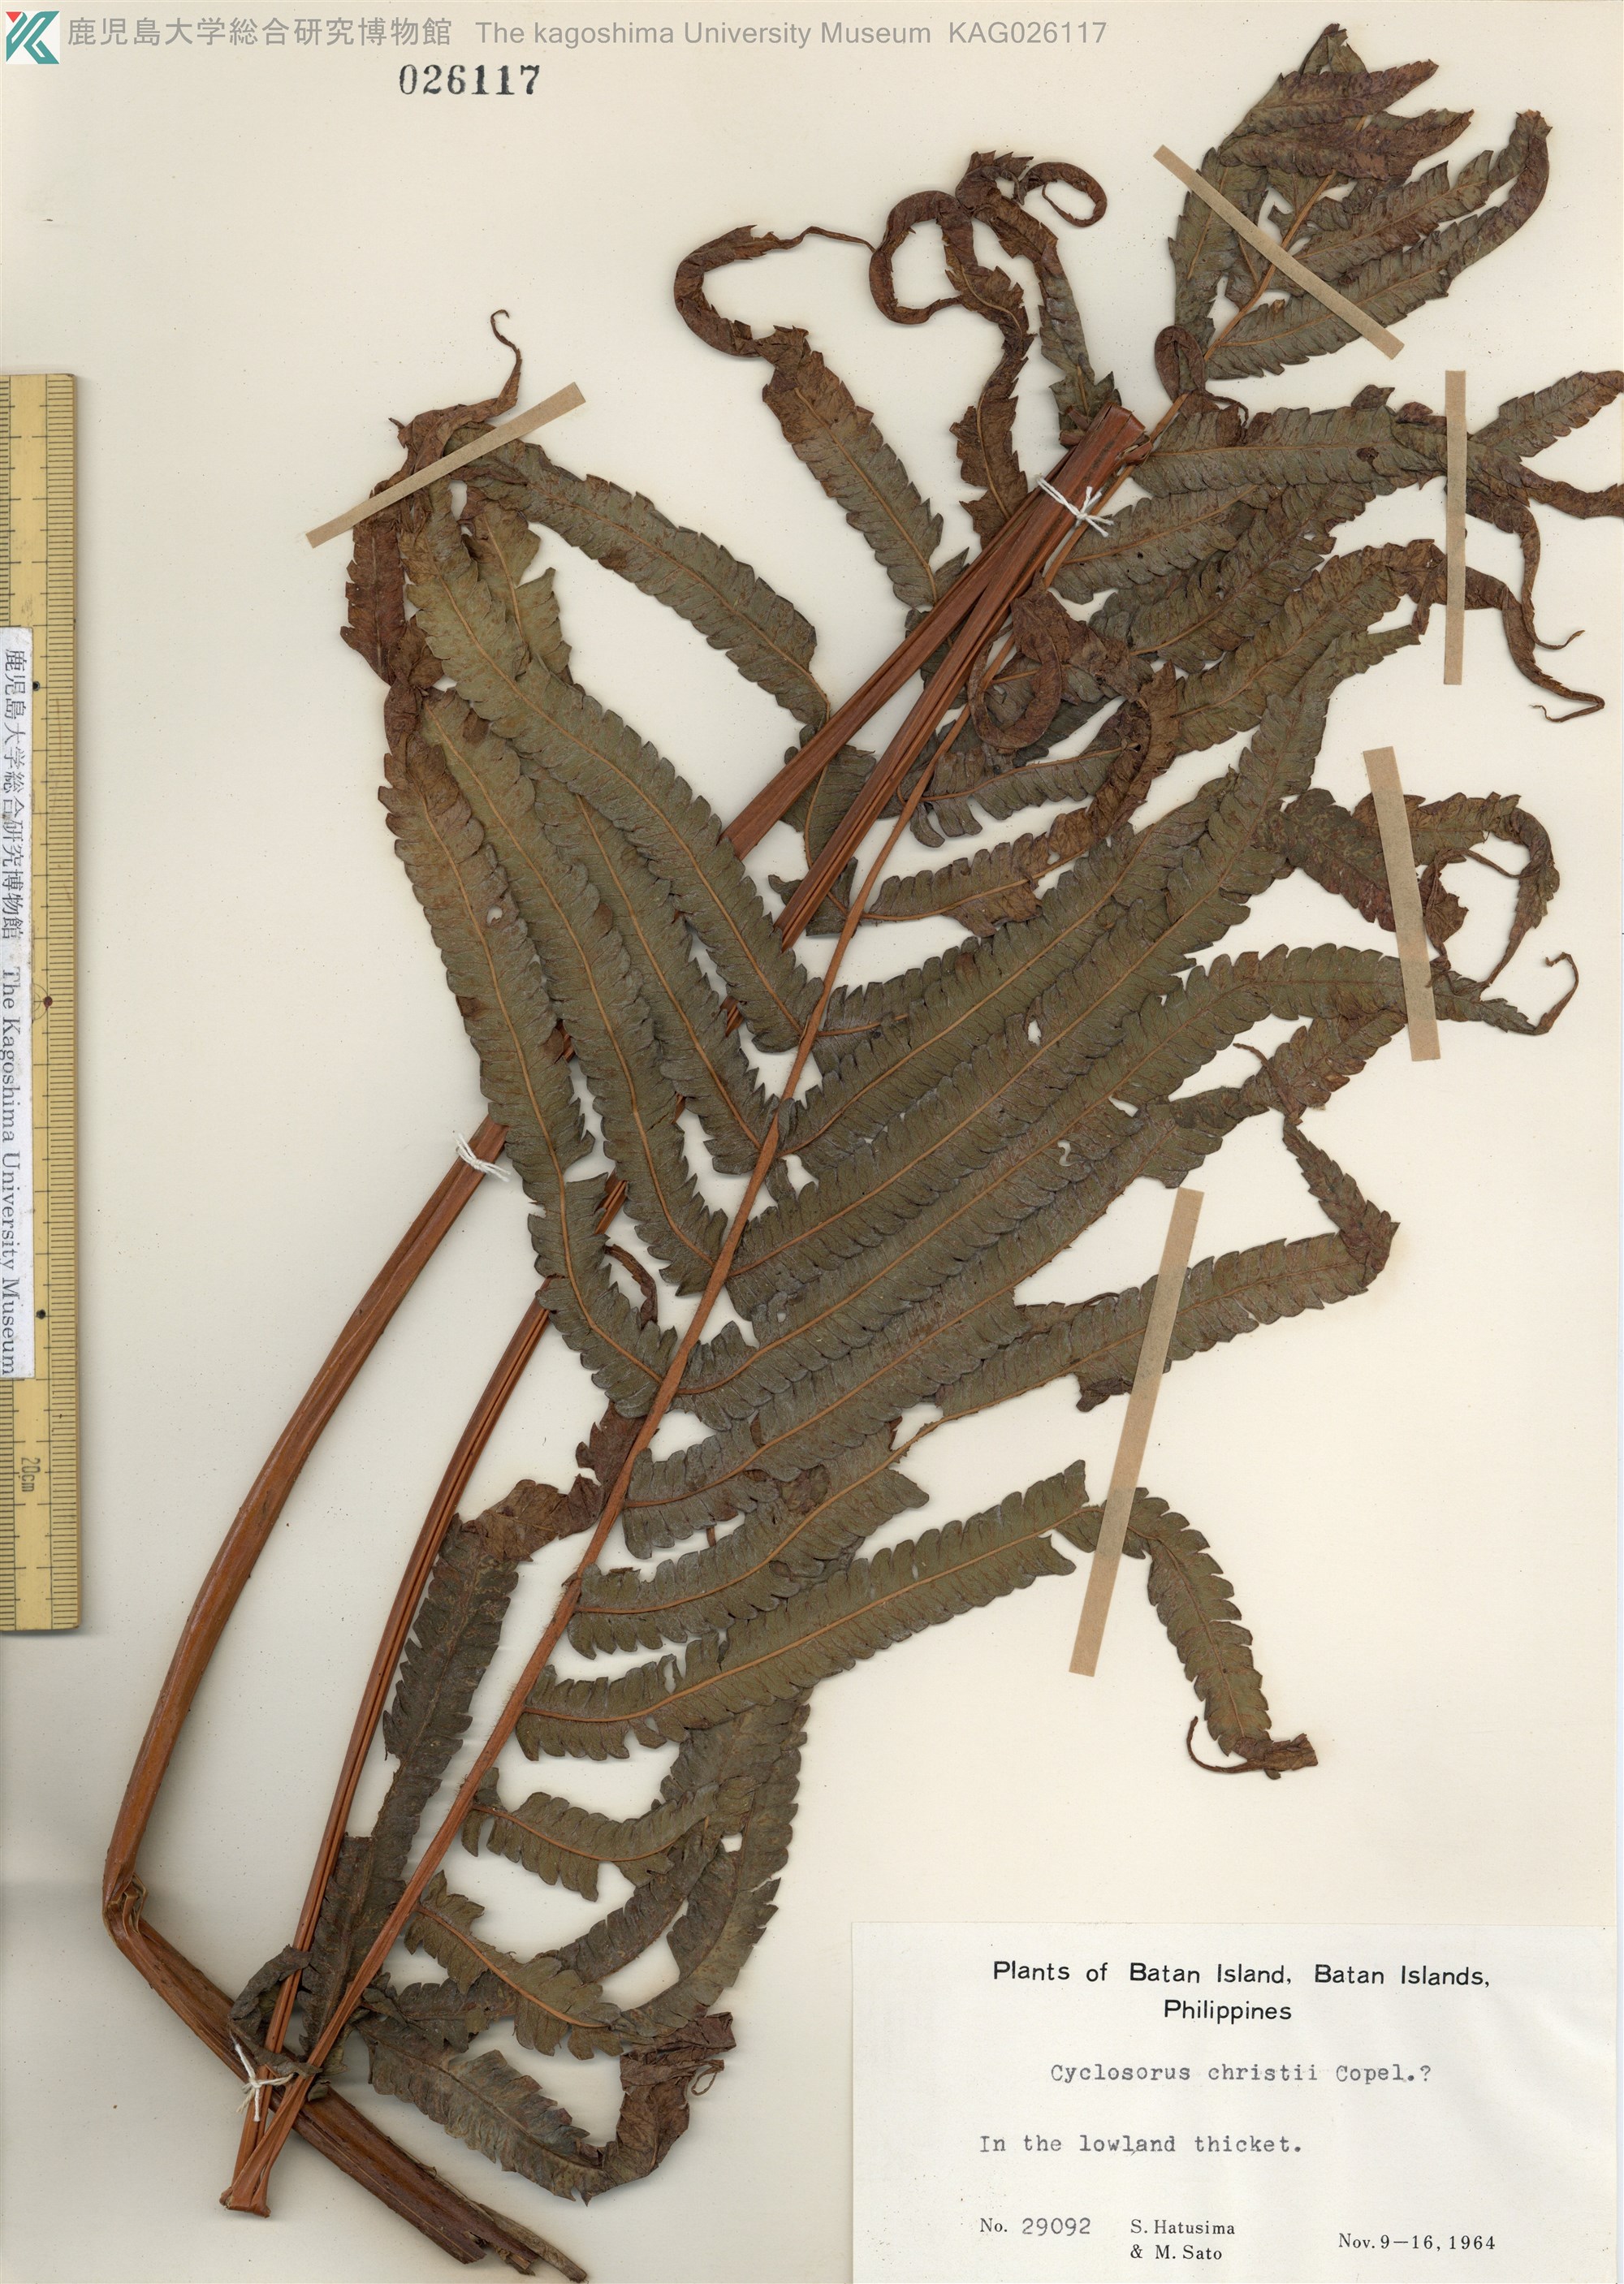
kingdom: Plantae
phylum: Tracheophyta
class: Polypodiopsida
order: Polypodiales
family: Dryopteridaceae
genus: Stigmatopteris
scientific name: Stigmatopteris opaca
